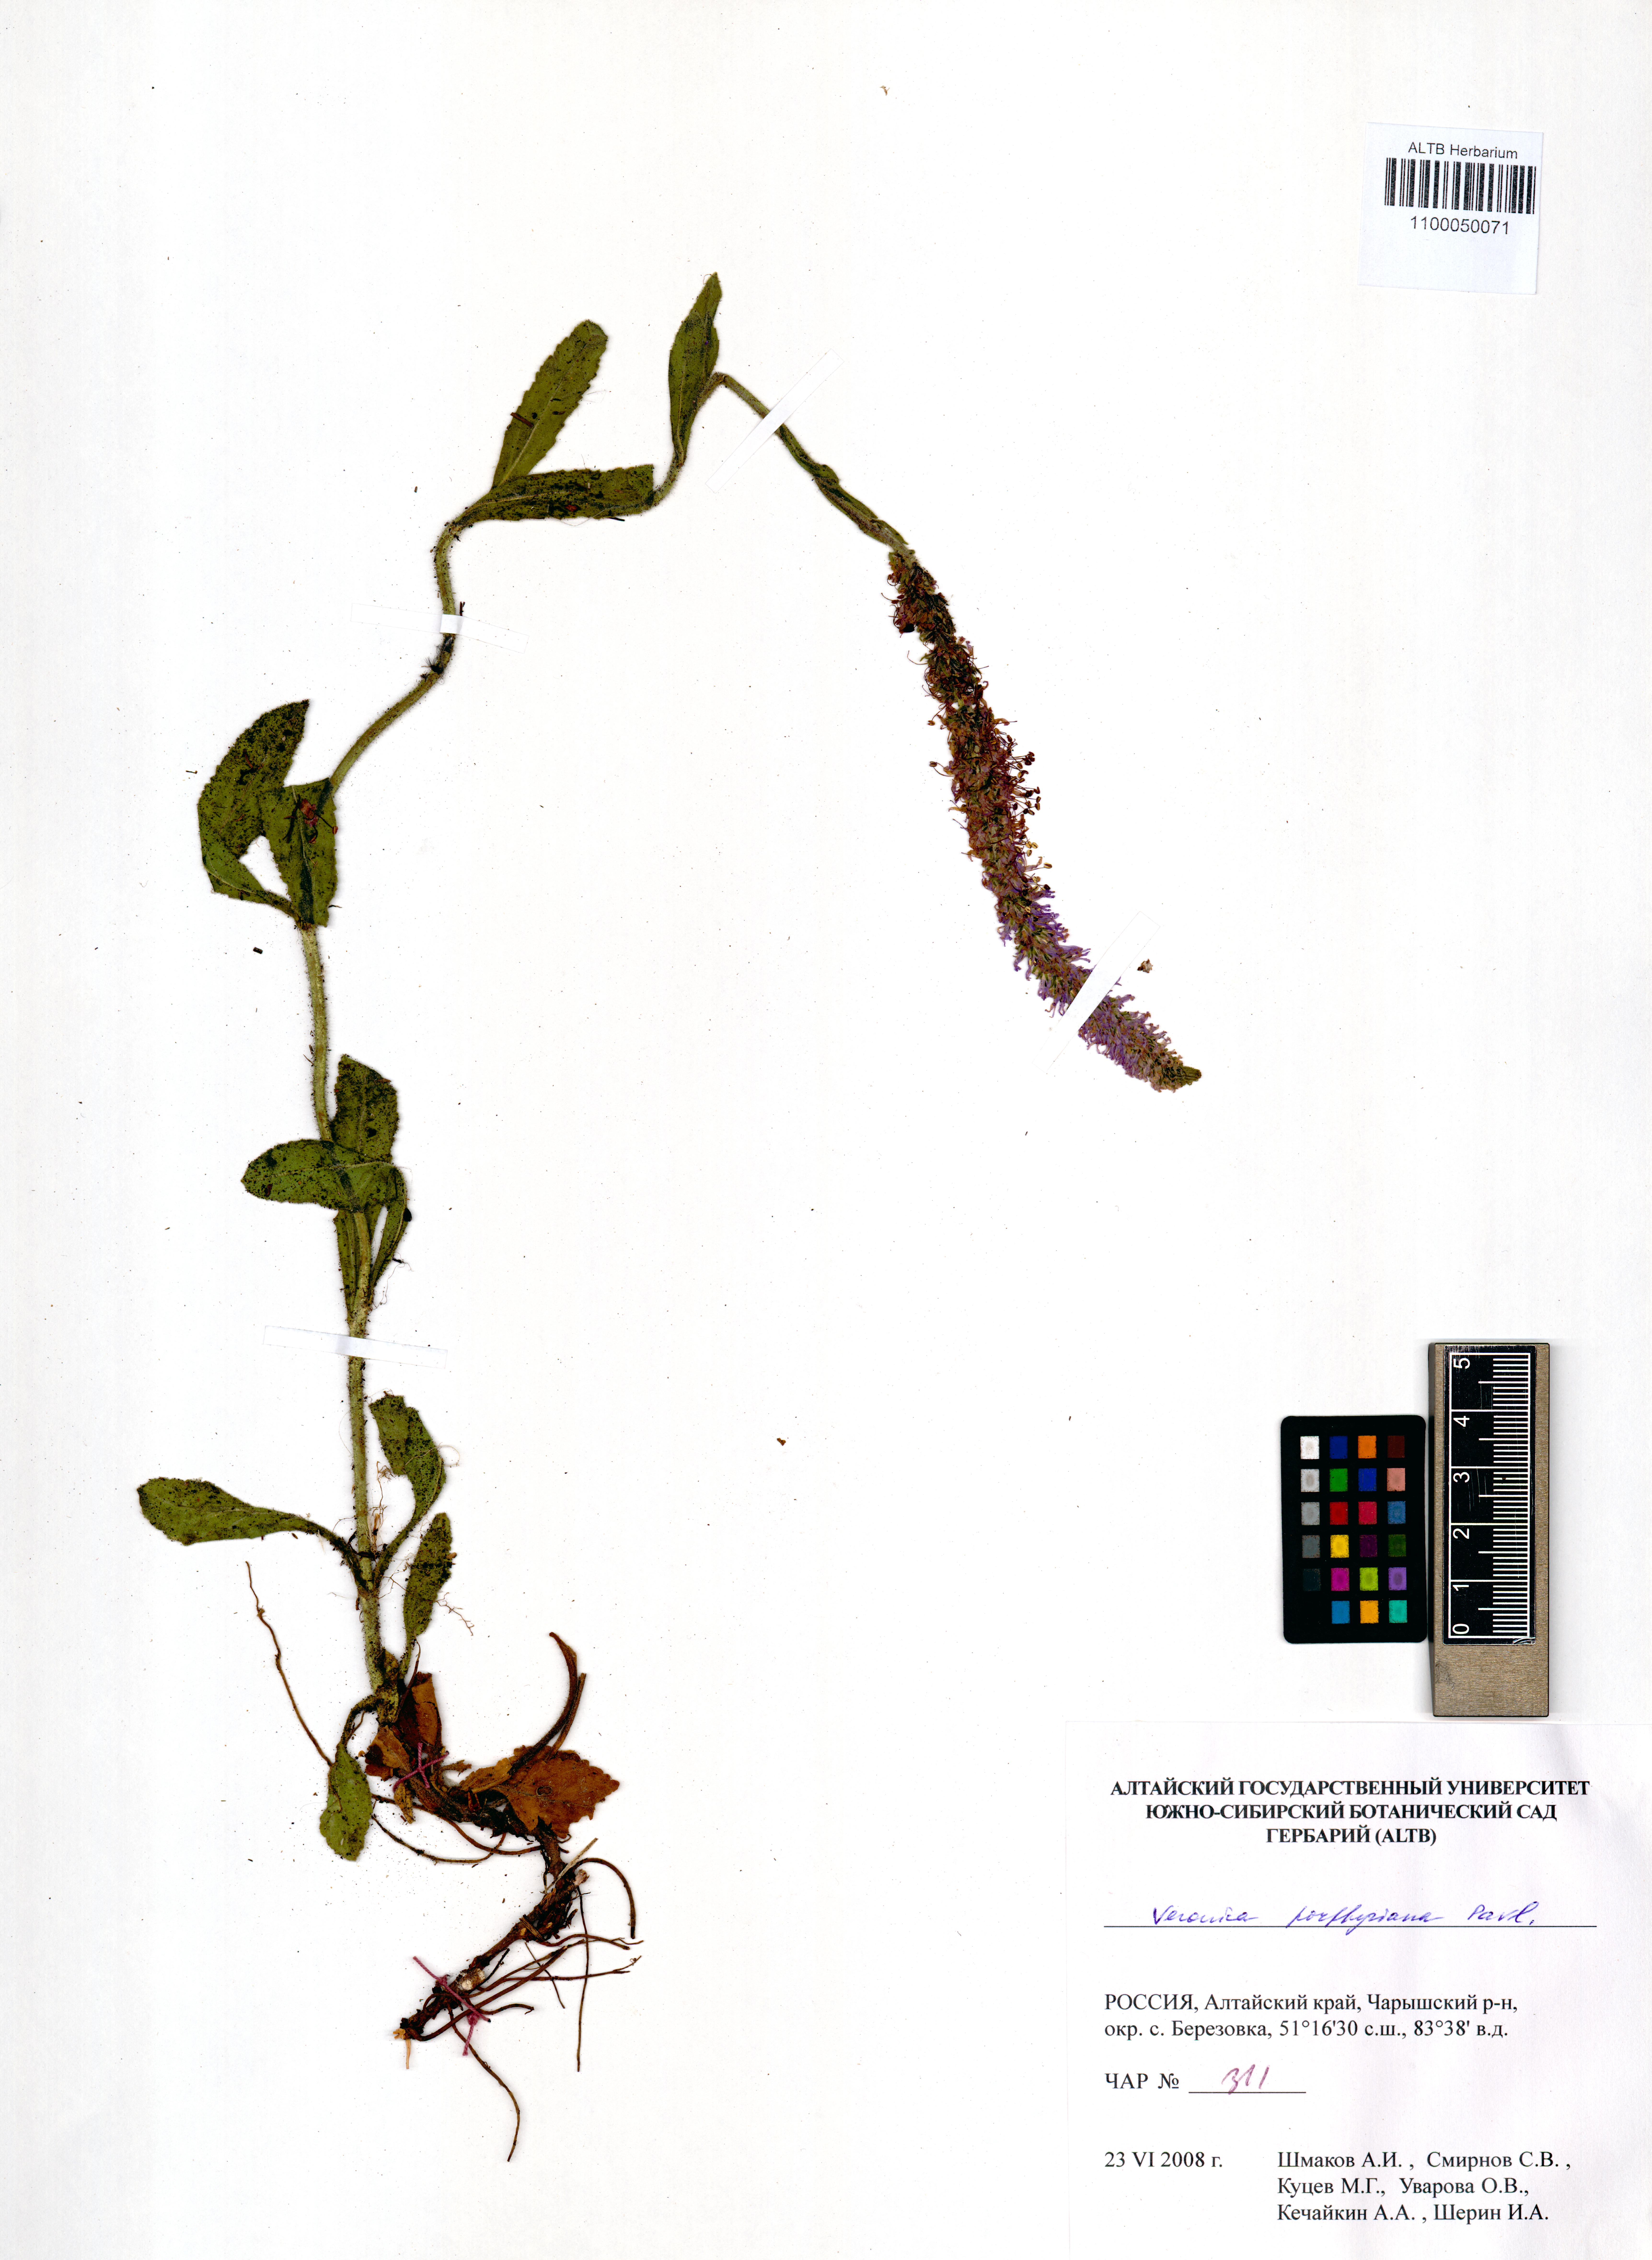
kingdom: Plantae
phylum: Tracheophyta
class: Magnoliopsida
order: Lamiales
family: Plantaginaceae
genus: Veronica
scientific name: Veronica porphyriana
